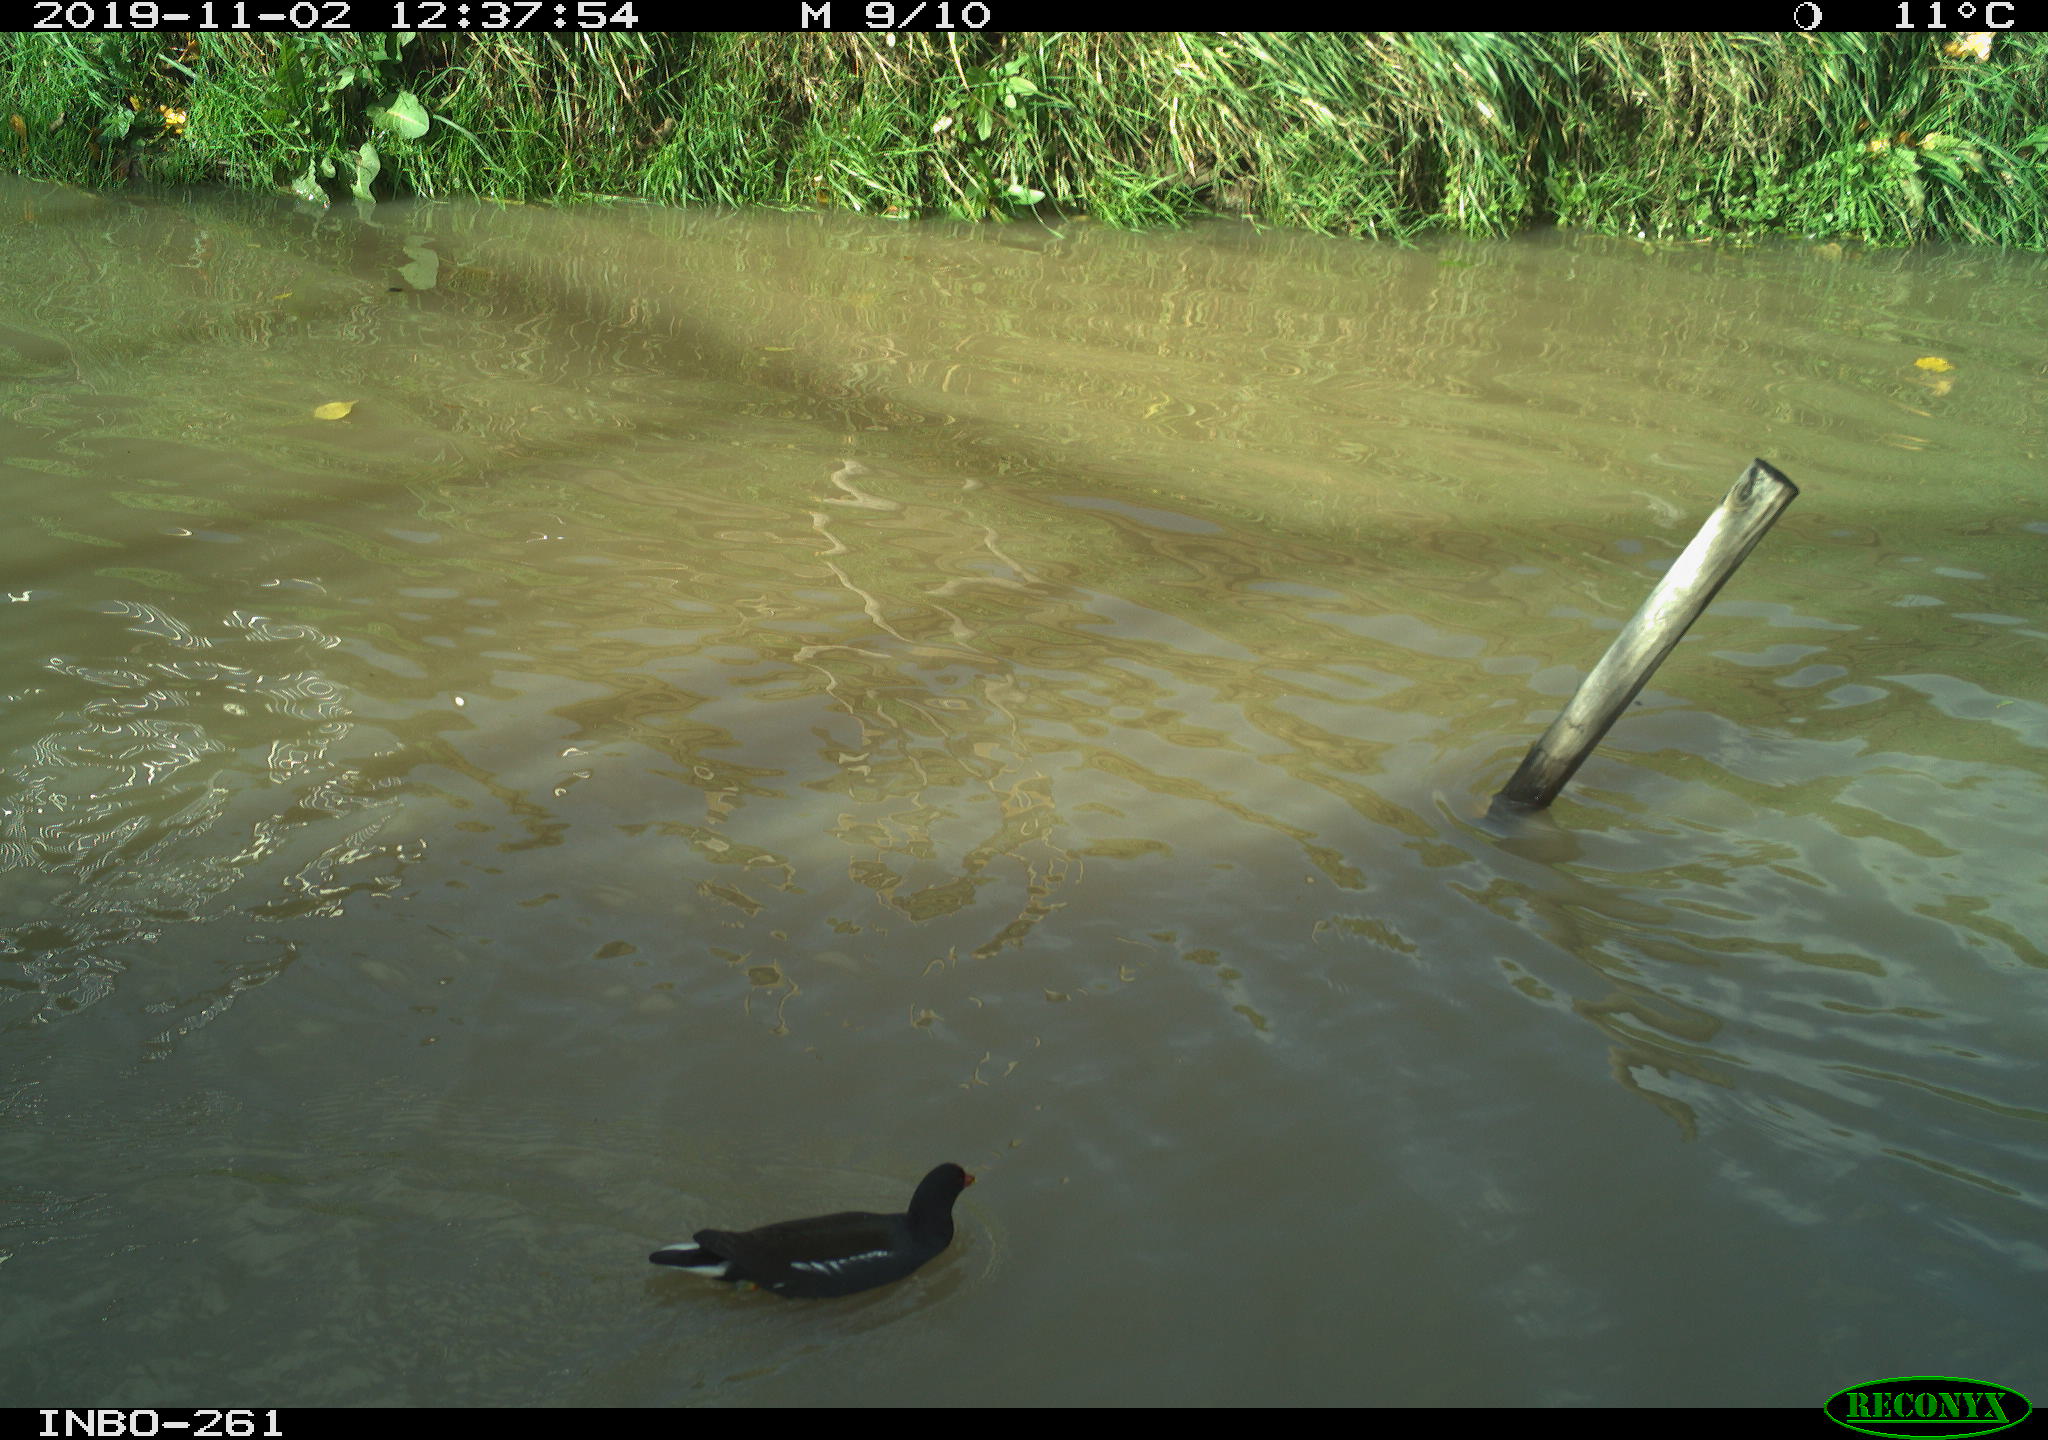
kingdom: Animalia
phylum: Chordata
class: Aves
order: Gruiformes
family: Rallidae
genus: Gallinula
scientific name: Gallinula chloropus
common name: Common moorhen
